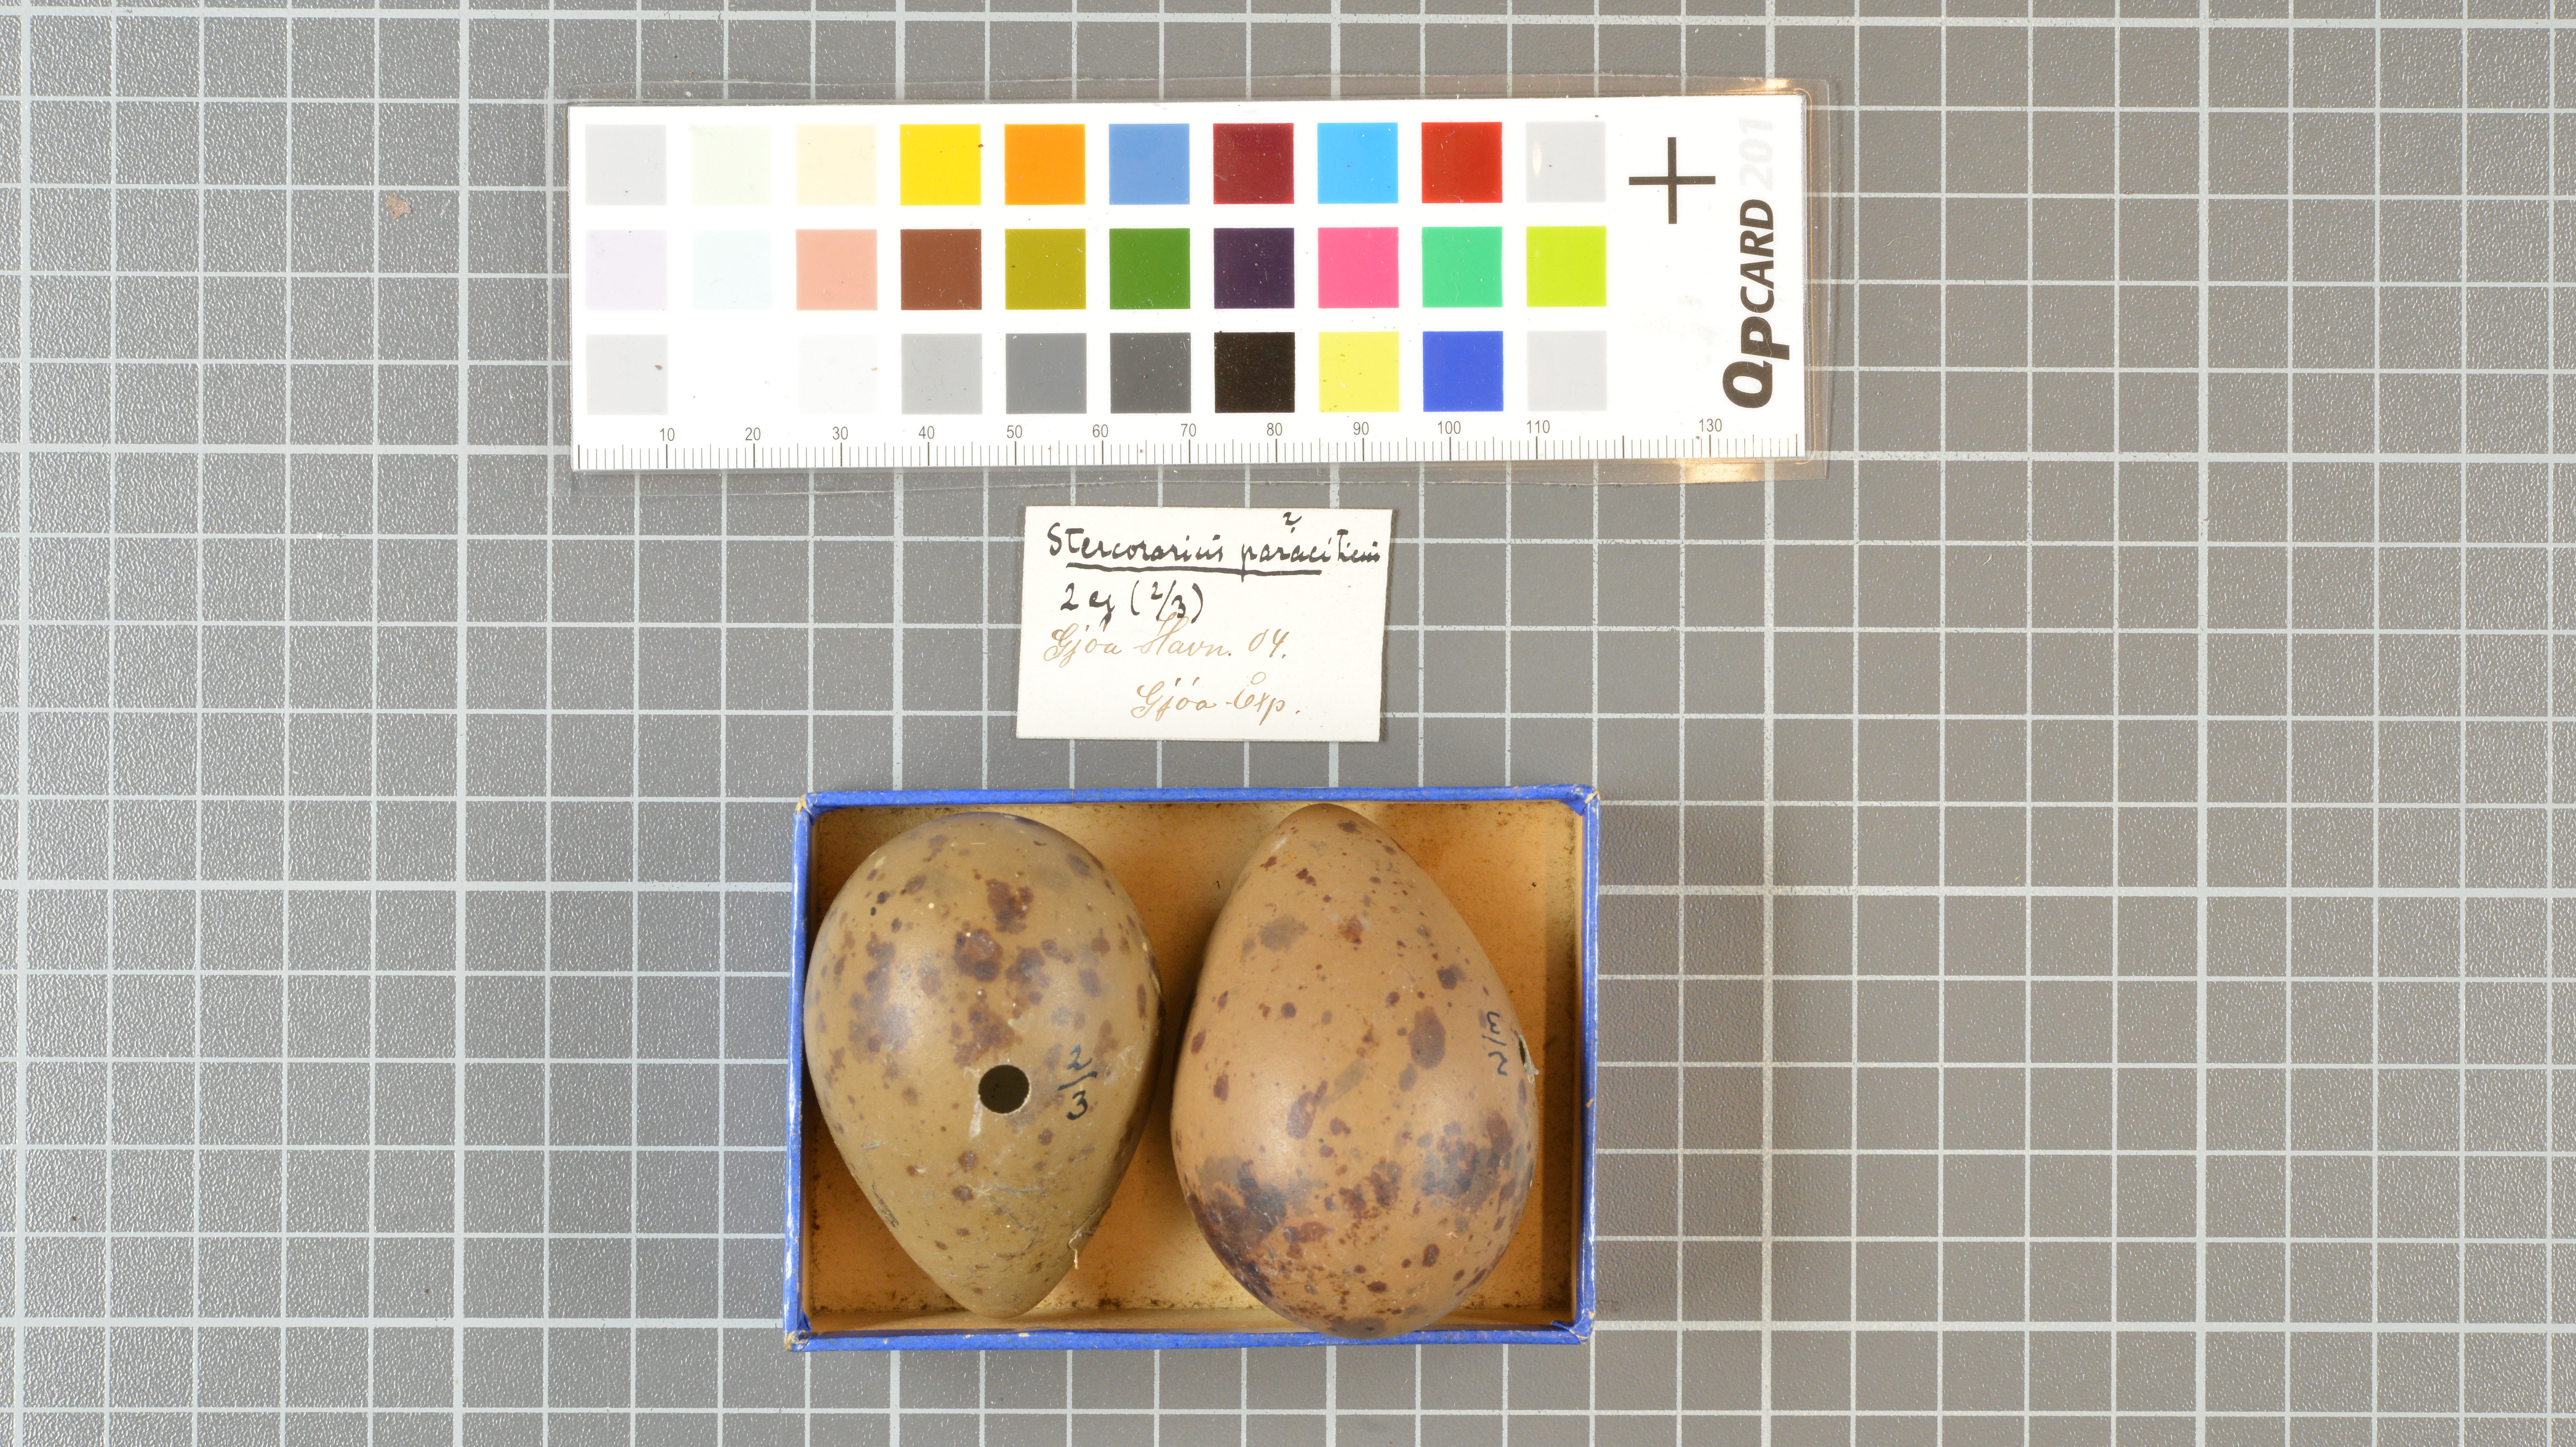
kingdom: Animalia
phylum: Chordata
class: Aves
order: Charadriiformes
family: Stercorariidae
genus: Stercorarius
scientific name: Stercorarius parasiticus
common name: Parasitic jaeger
